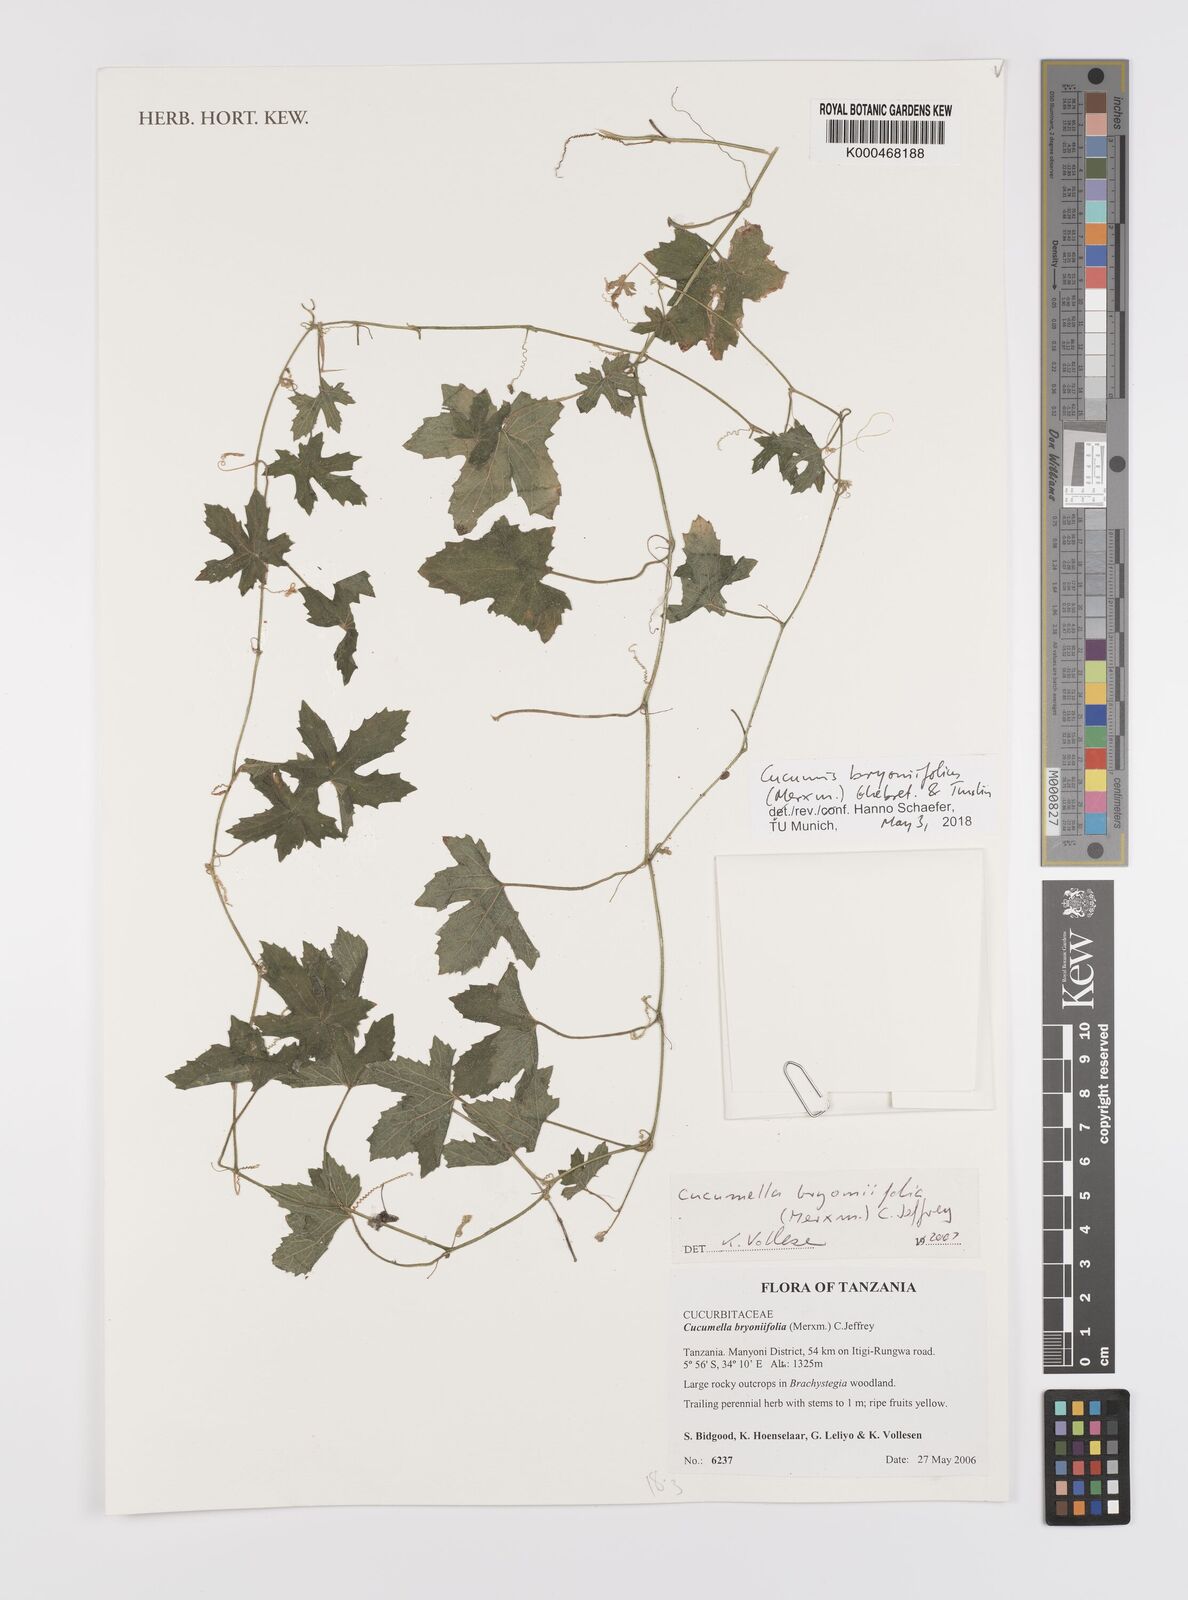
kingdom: Plantae
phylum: Tracheophyta
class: Magnoliopsida
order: Cucurbitales
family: Cucurbitaceae
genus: Cucumis
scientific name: Cucumis bryoniifolius
